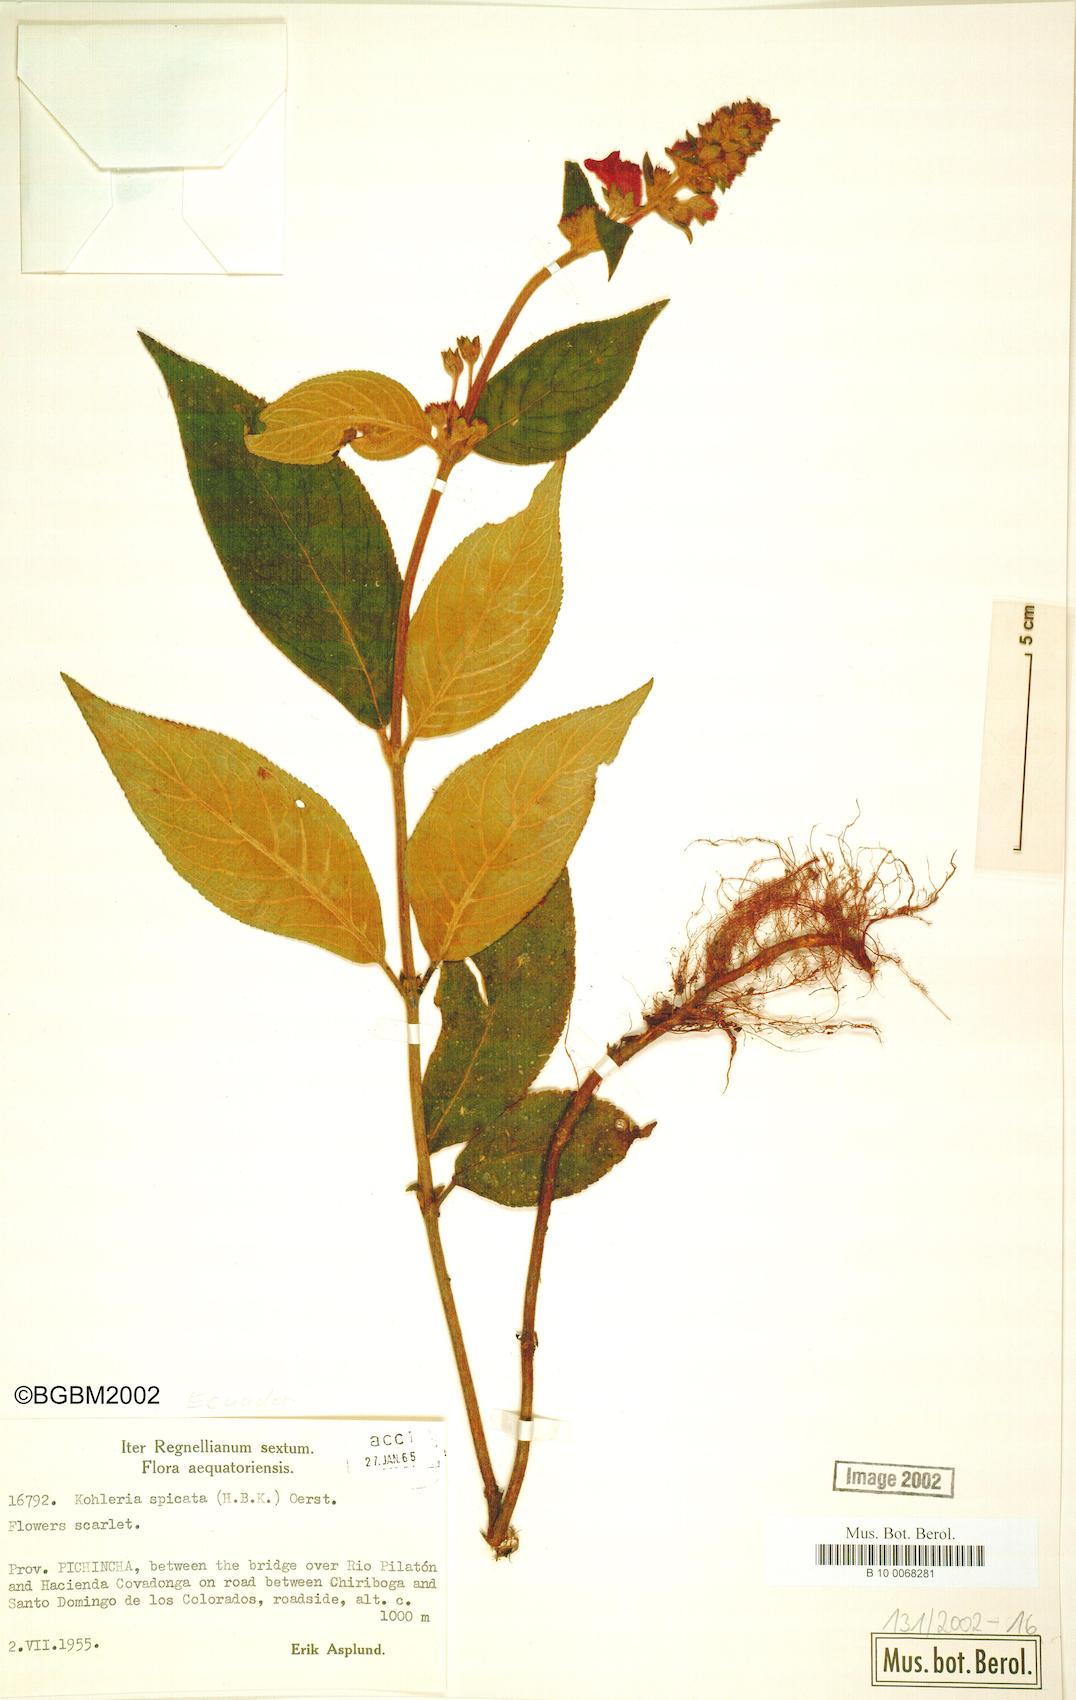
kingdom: Plantae
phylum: Tracheophyta
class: Magnoliopsida
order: Lamiales
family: Gesneriaceae
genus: Kohleria
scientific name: Kohleria spicata
